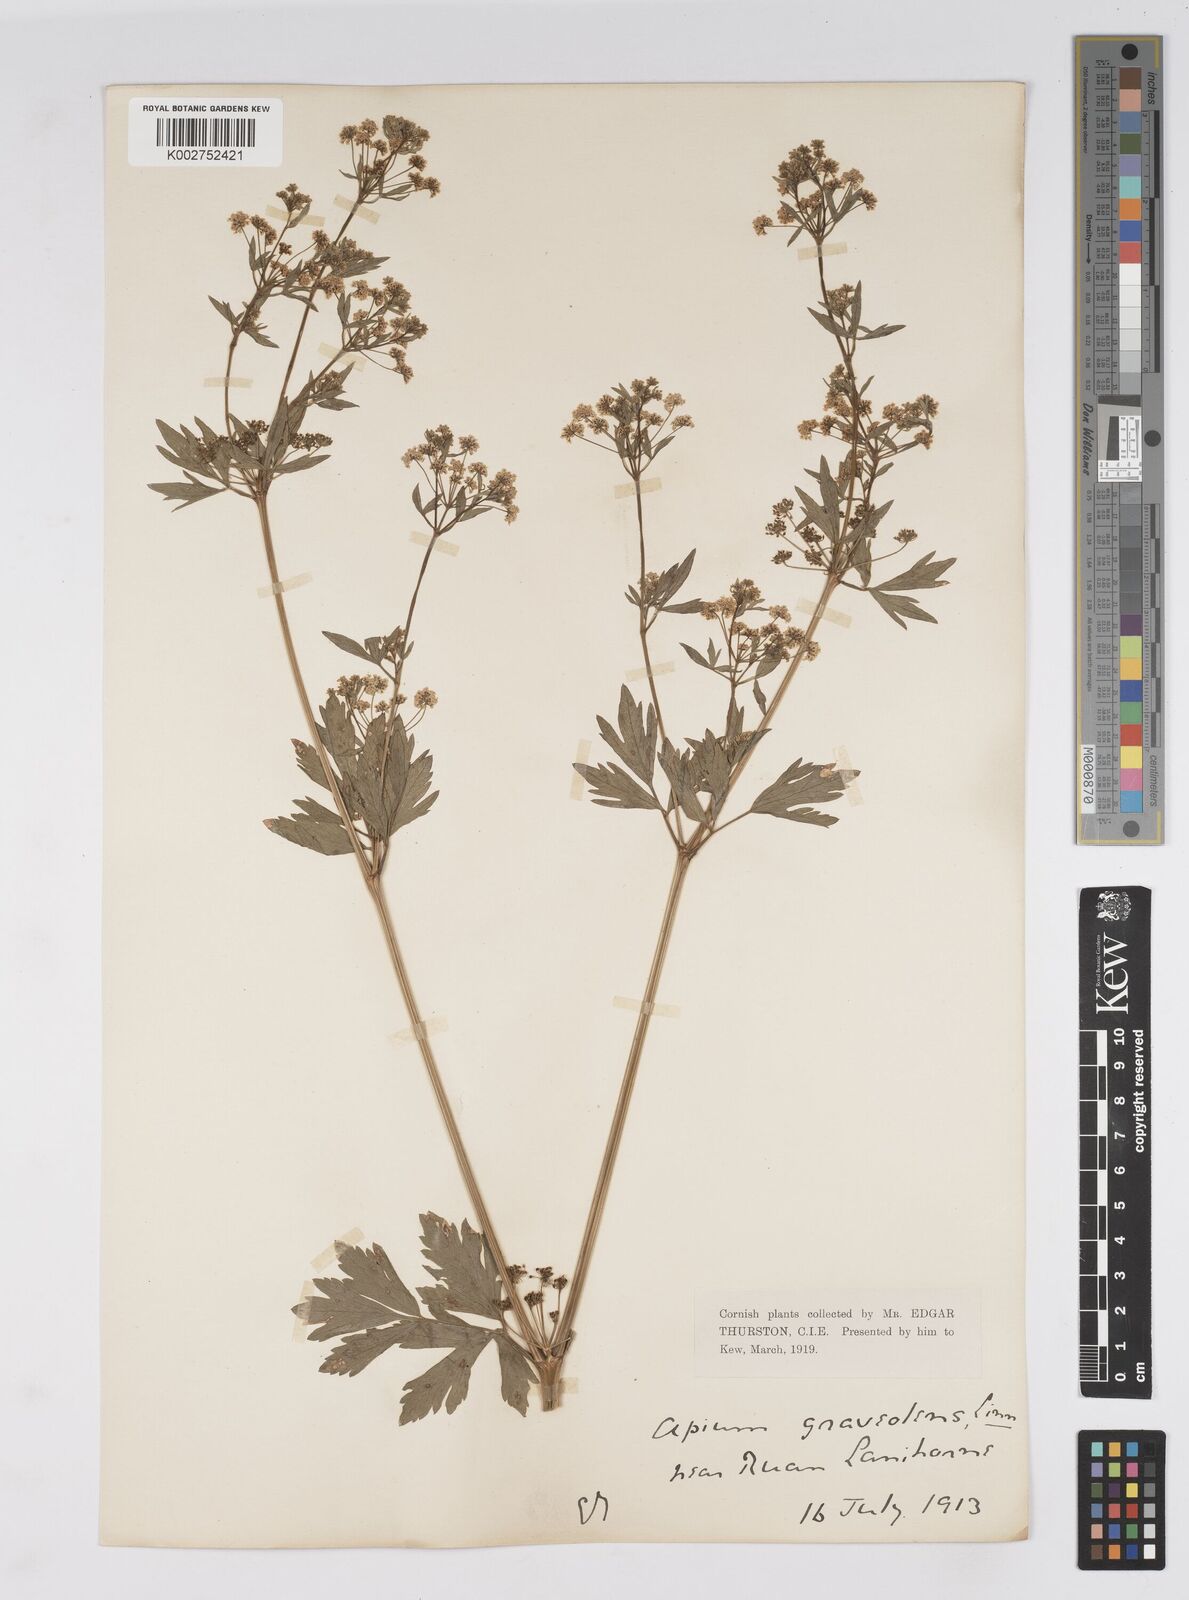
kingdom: Plantae
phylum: Tracheophyta
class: Magnoliopsida
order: Apiales
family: Apiaceae
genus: Apium
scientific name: Apium graveolens
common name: Wild celery
